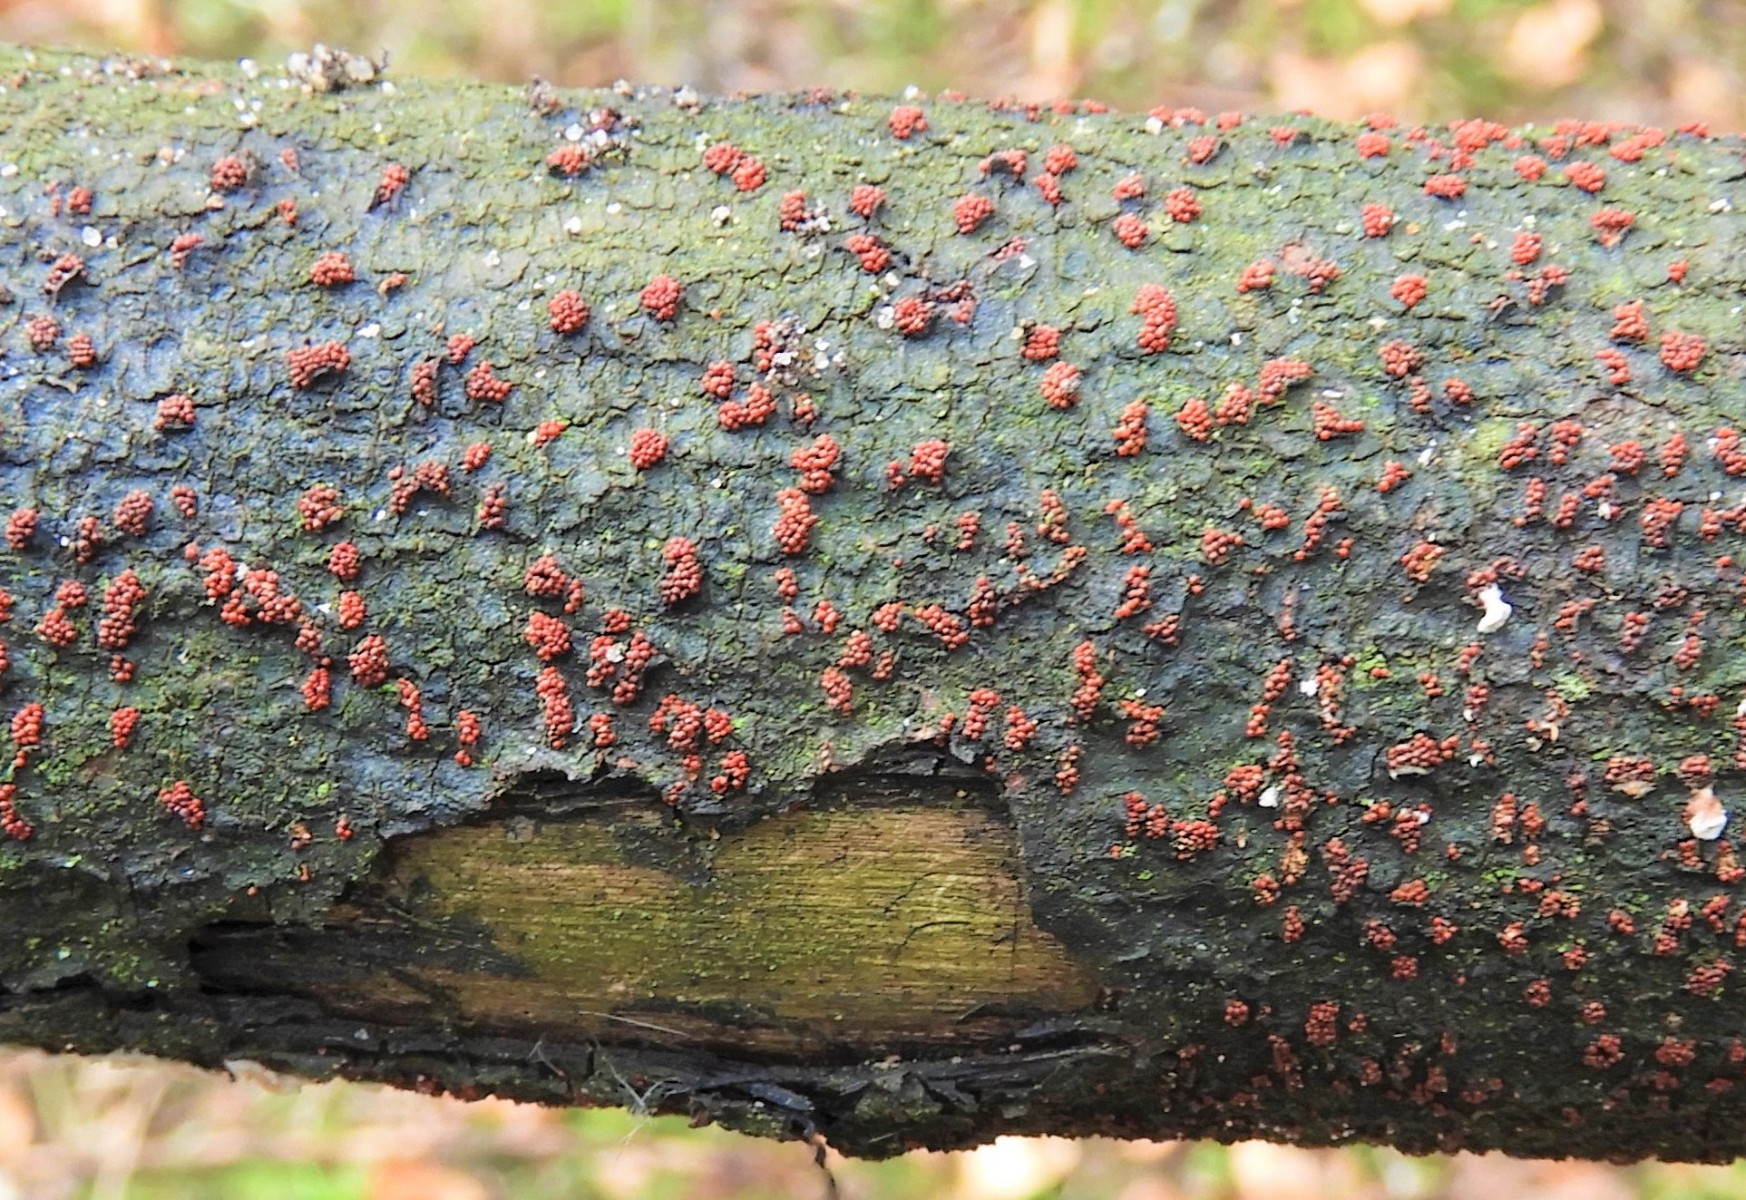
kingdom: Fungi
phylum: Ascomycota
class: Sordariomycetes
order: Hypocreales
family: Nectriaceae
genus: Nectria
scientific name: Nectria cinnabarina
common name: almindelig cinnobersvamp
